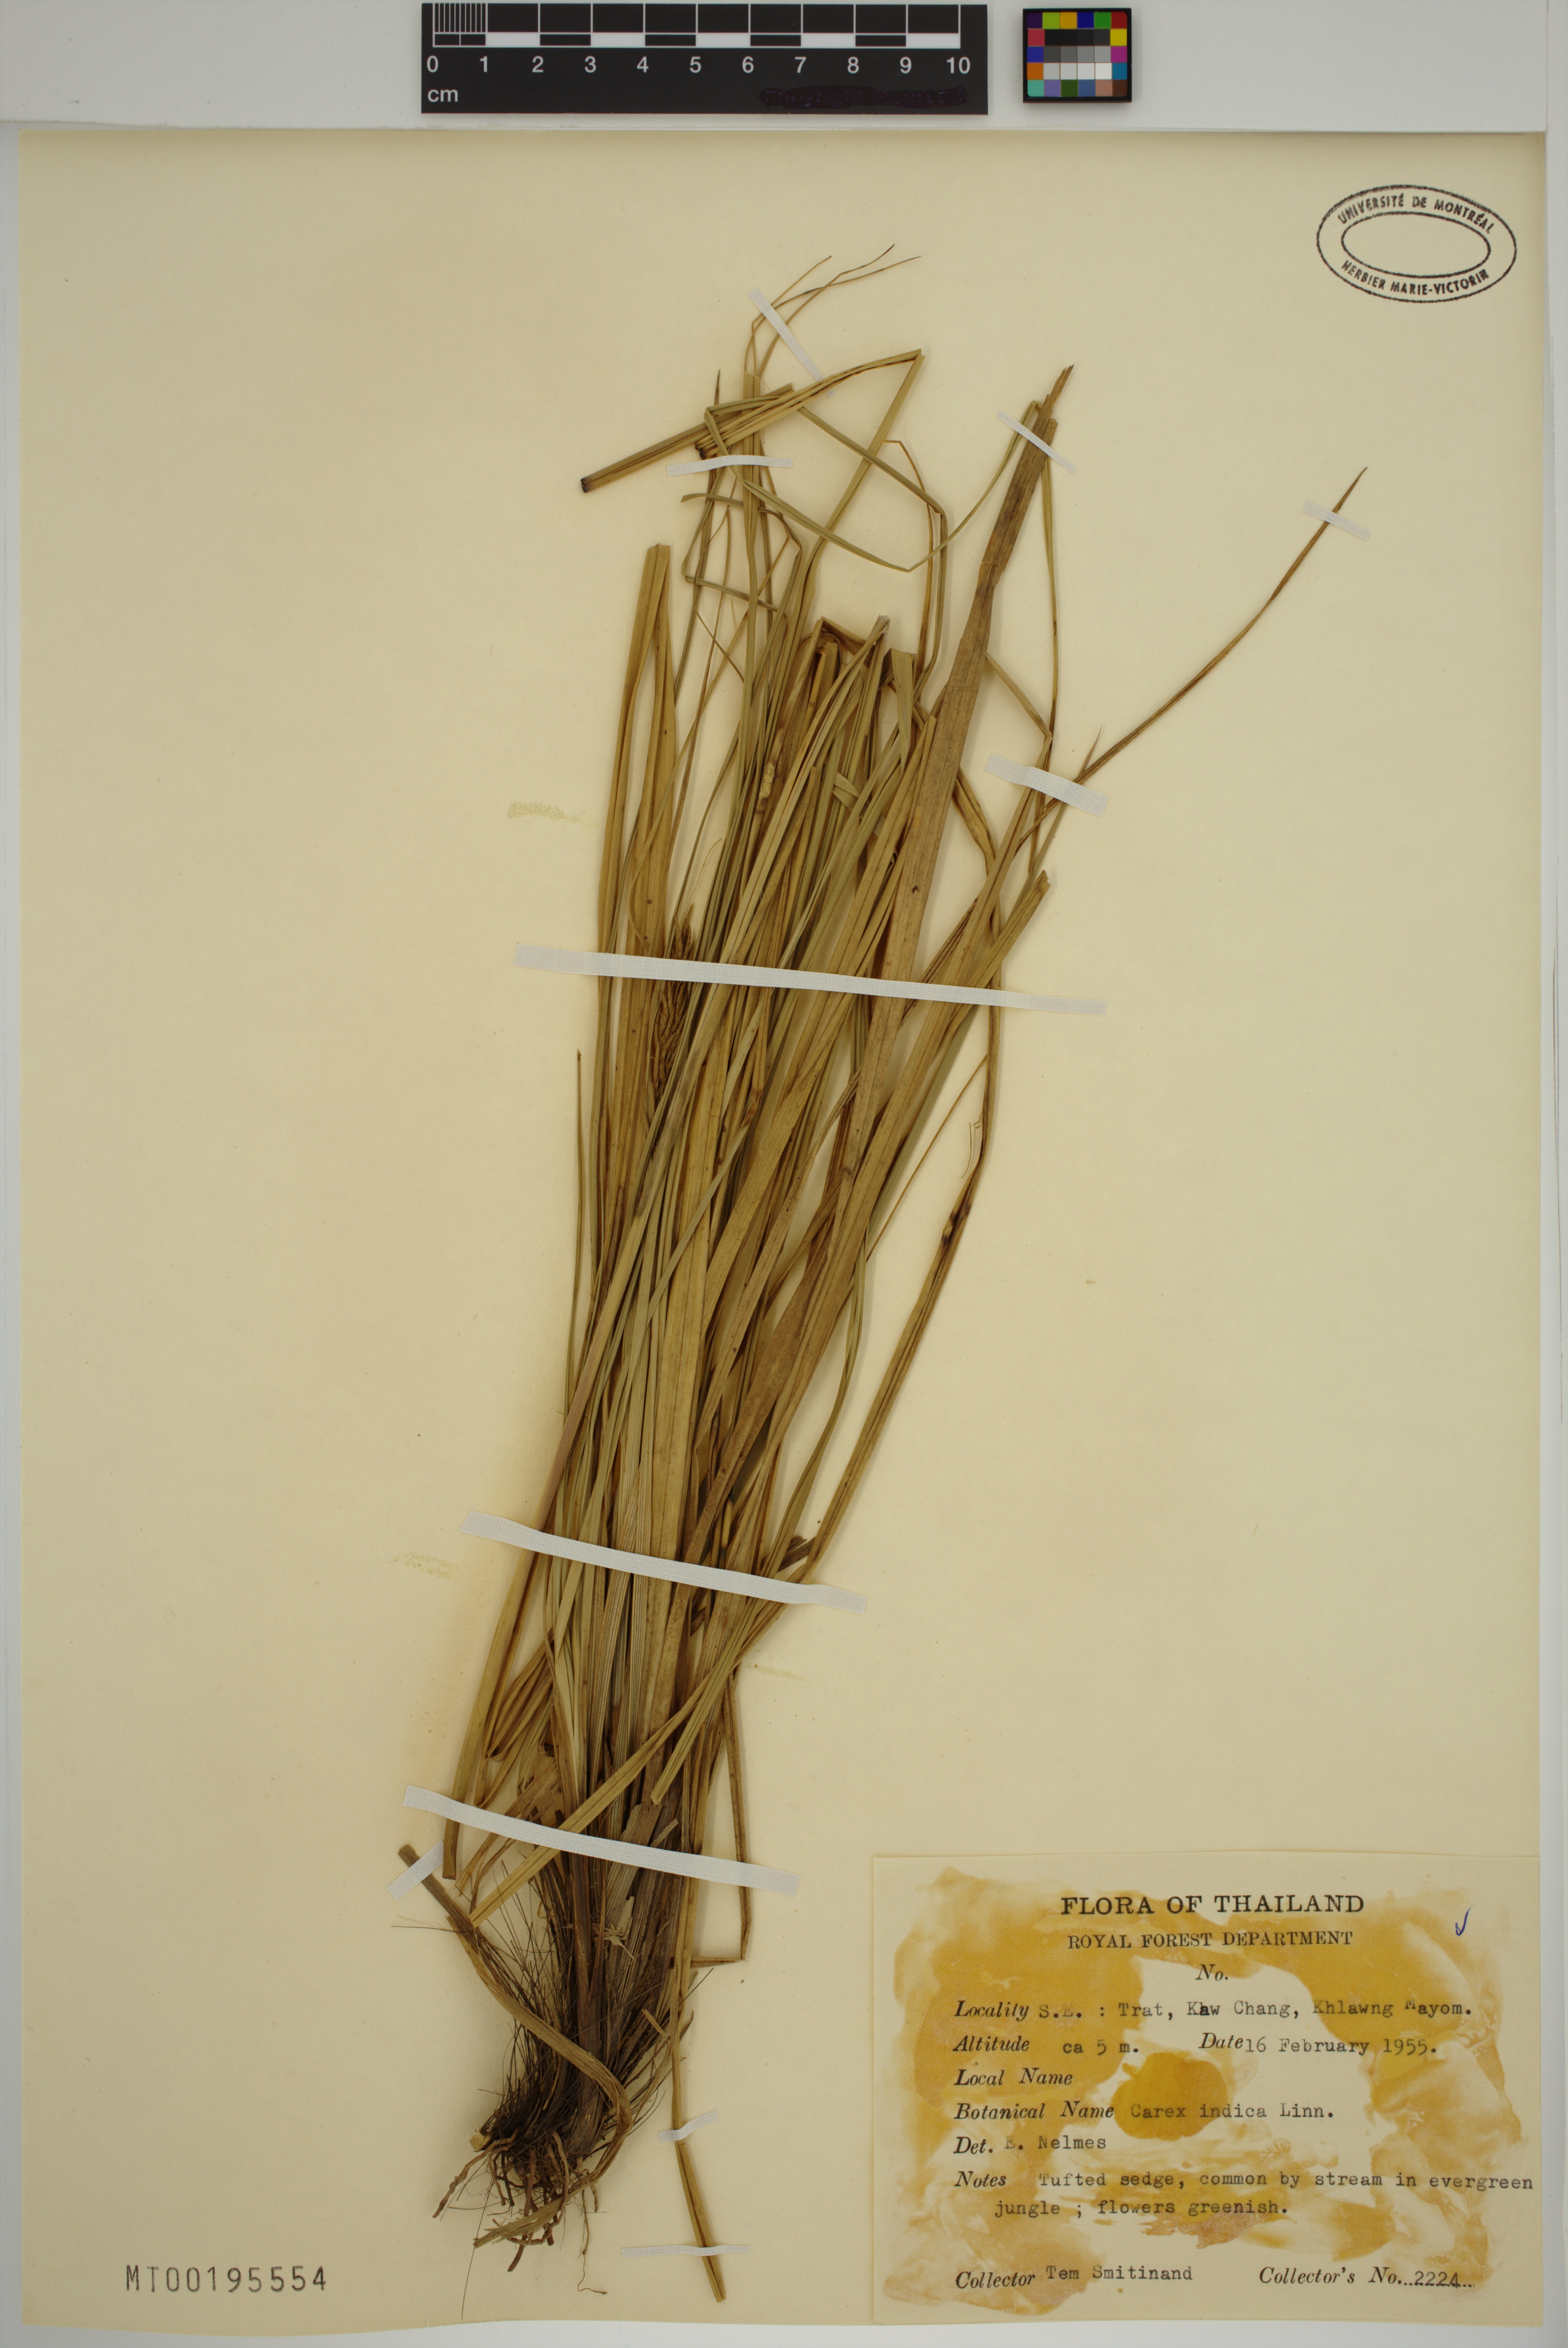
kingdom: Plantae
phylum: Tracheophyta
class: Liliopsida
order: Poales
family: Cyperaceae
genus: Carex
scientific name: Carex indica
